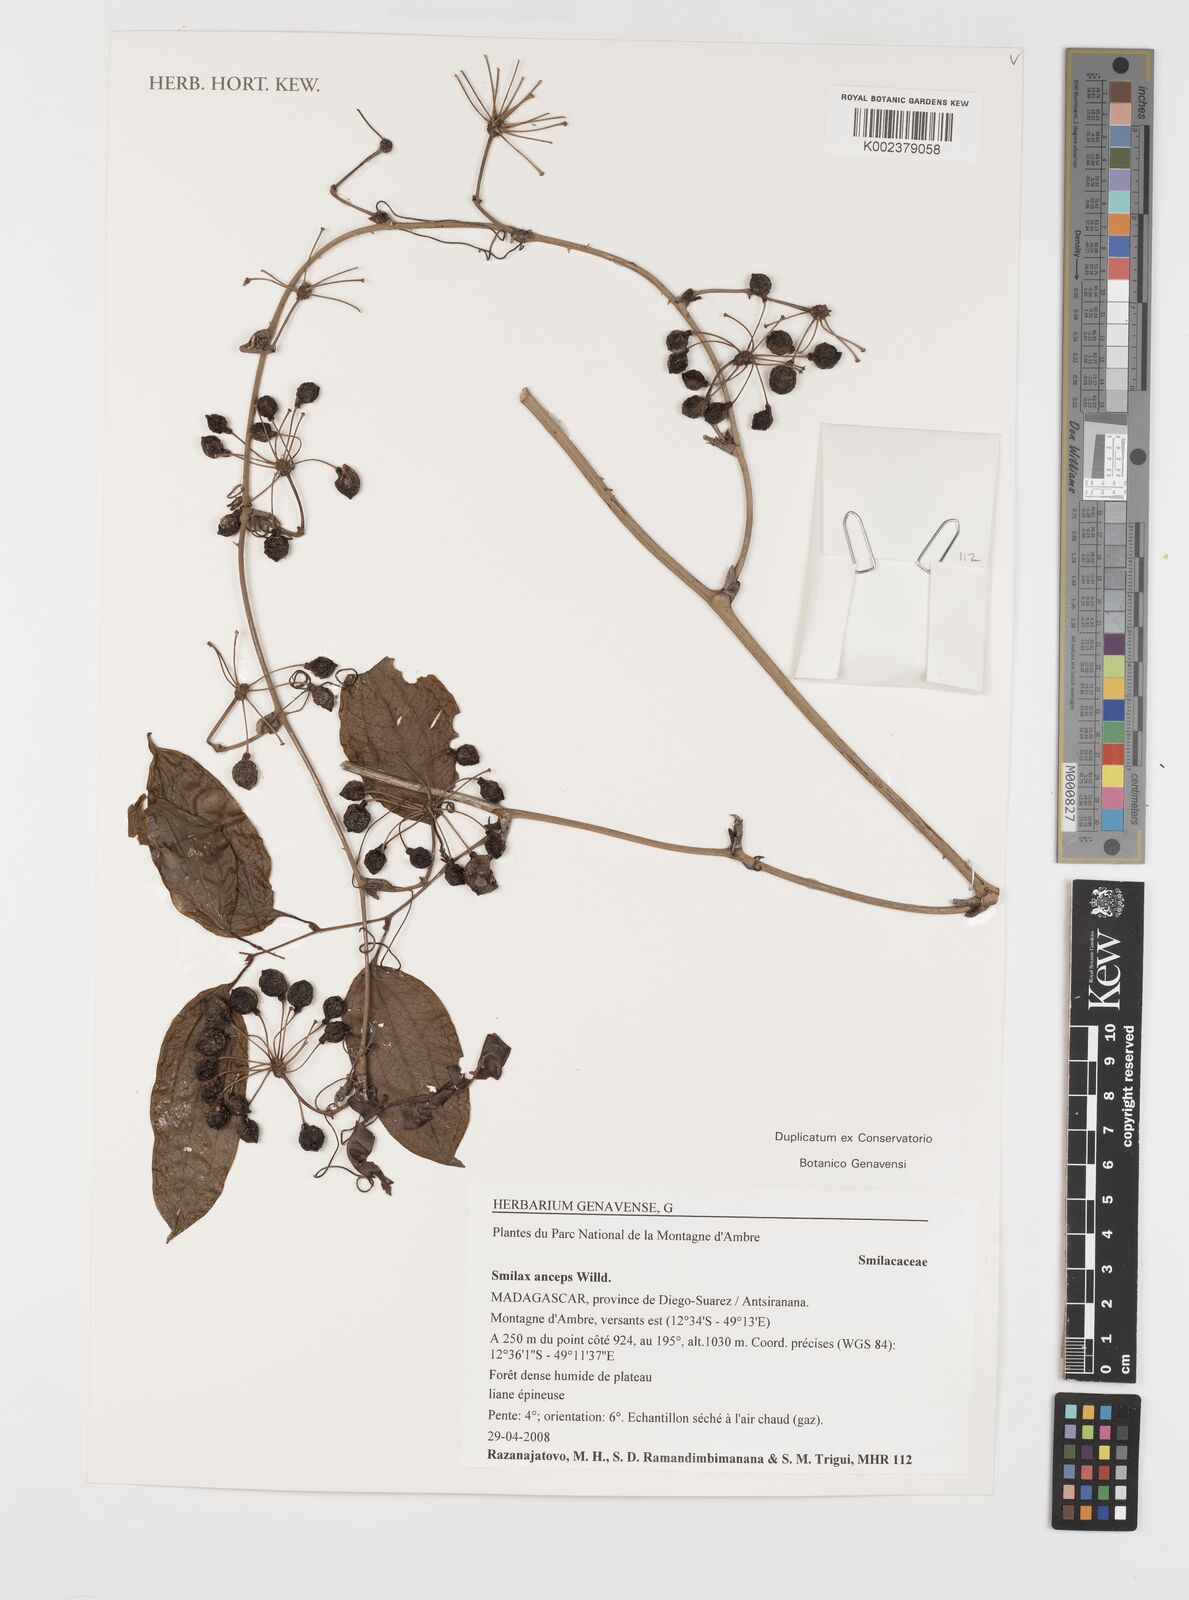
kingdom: Plantae
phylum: Tracheophyta
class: Liliopsida
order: Liliales
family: Smilacaceae
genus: Smilax
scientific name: Smilax anceps
